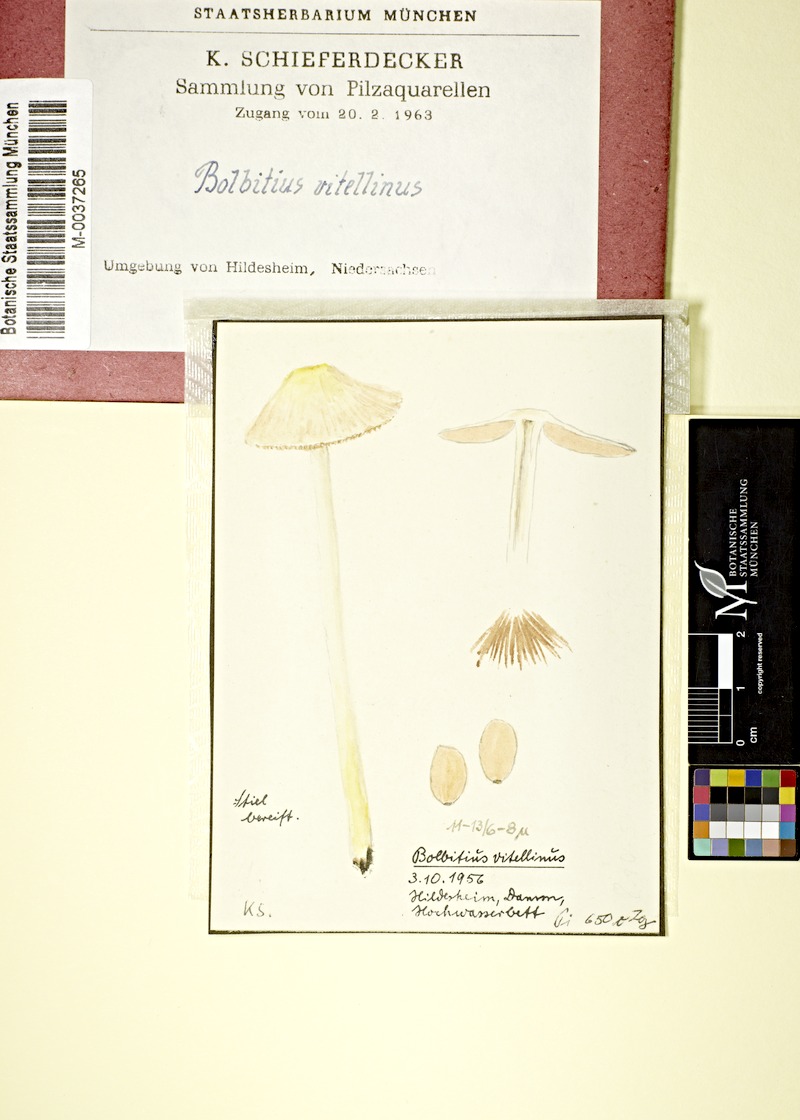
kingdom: Fungi
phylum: Basidiomycota
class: Agaricomycetes
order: Agaricales
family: Bolbitiaceae
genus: Bolbitius
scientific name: Bolbitius titubans
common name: Yellow fieldcap
